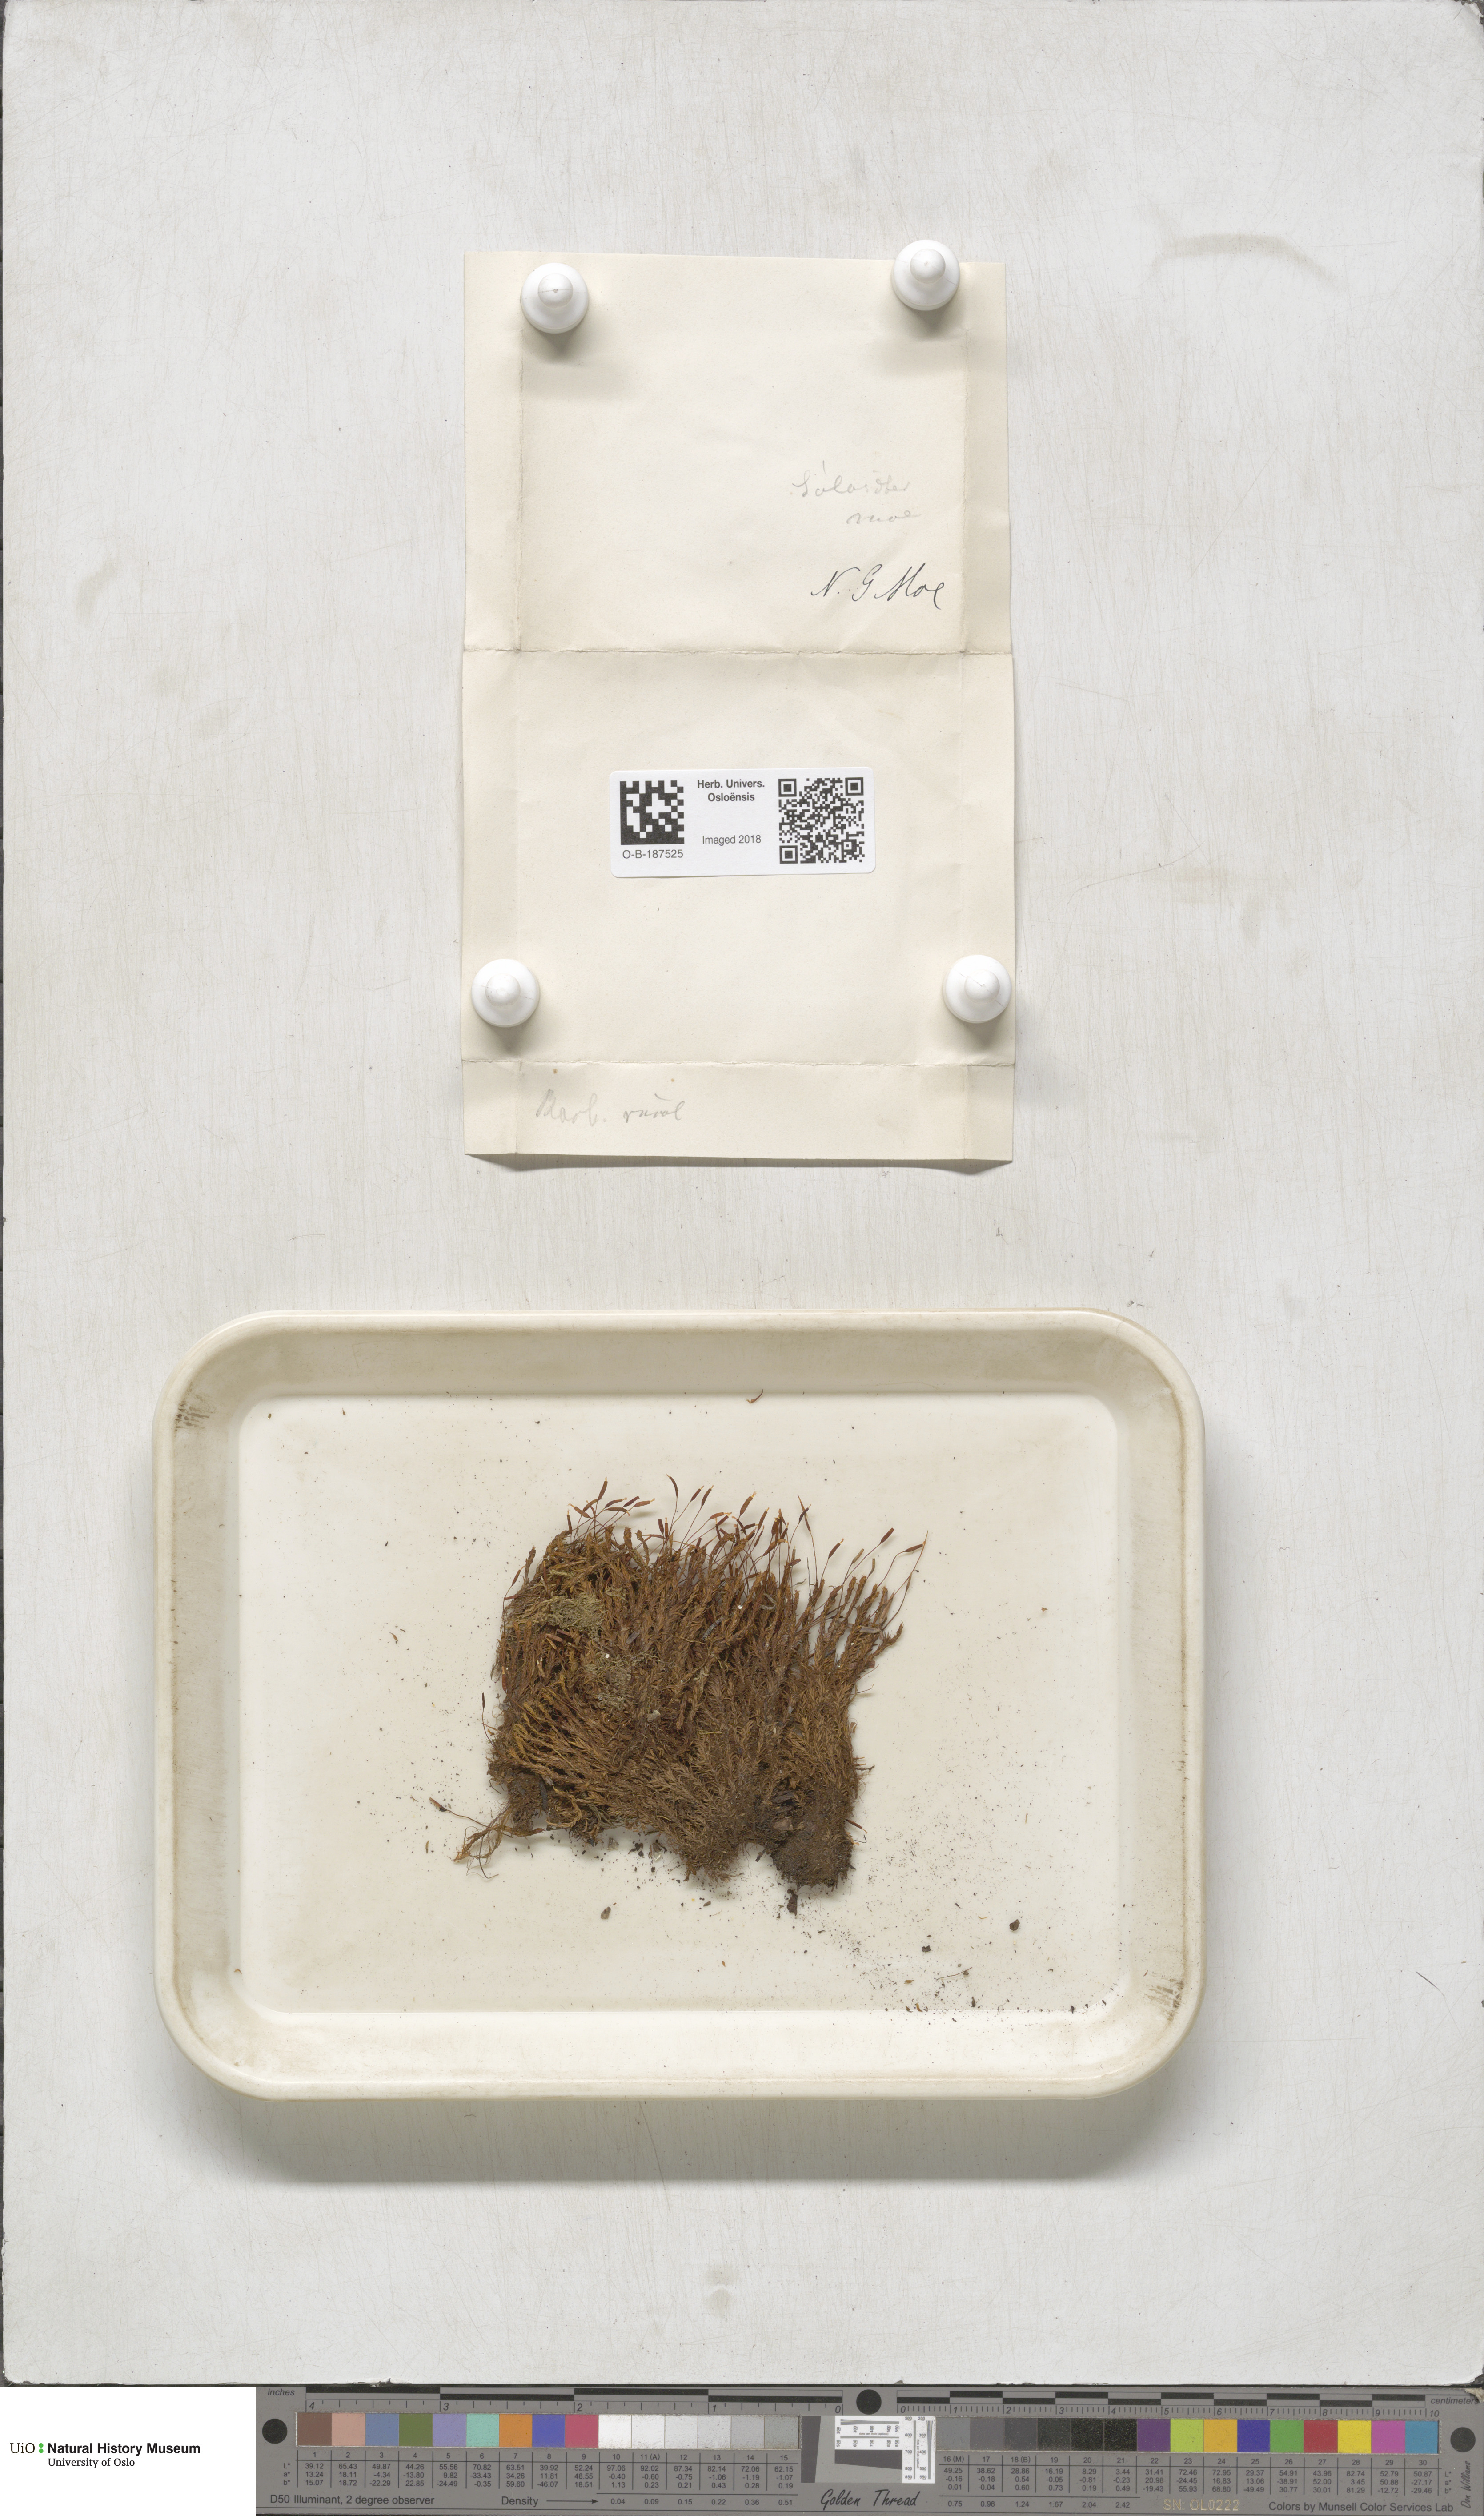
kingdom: Plantae
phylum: Bryophyta
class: Bryopsida
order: Pottiales
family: Pottiaceae
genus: Syntrichia
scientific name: Syntrichia ruralis
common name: Sidewalk screw moss
